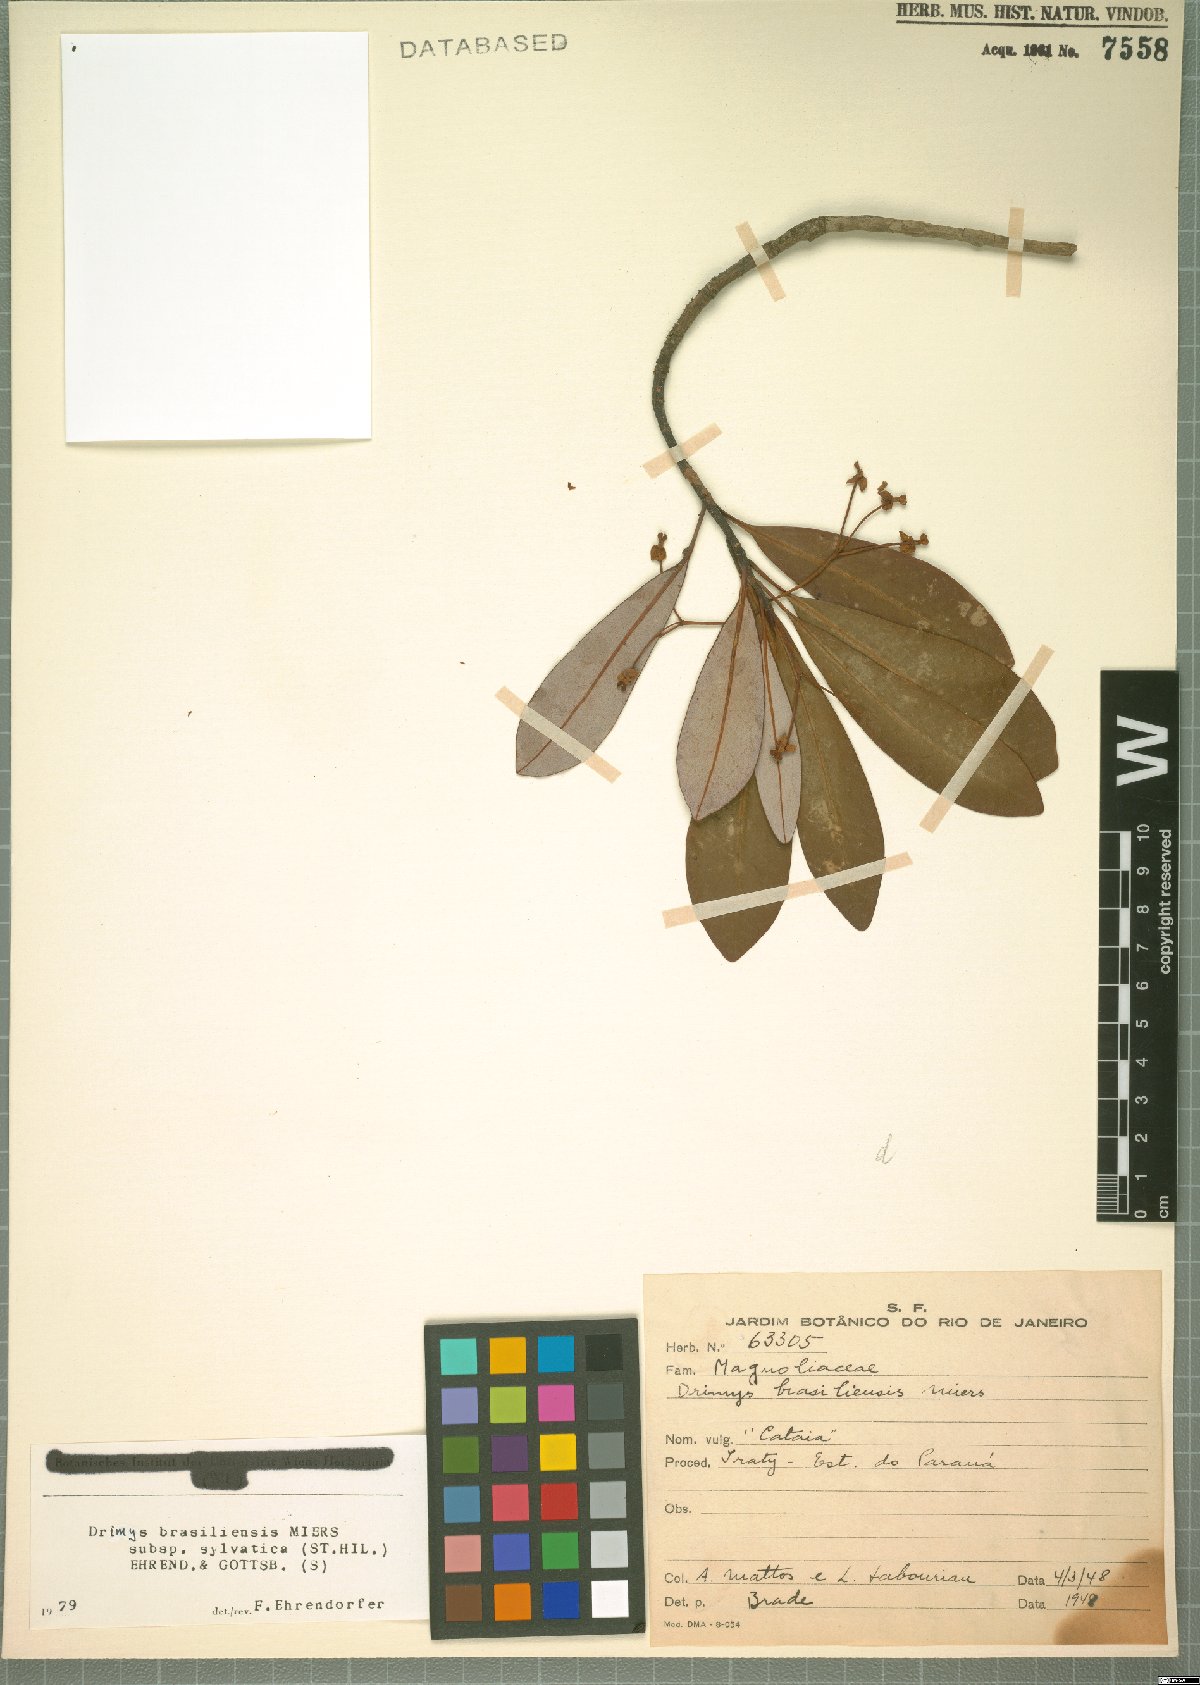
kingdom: Plantae
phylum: Tracheophyta
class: Magnoliopsida
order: Canellales
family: Winteraceae
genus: Drimys
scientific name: Drimys brasiliensis
